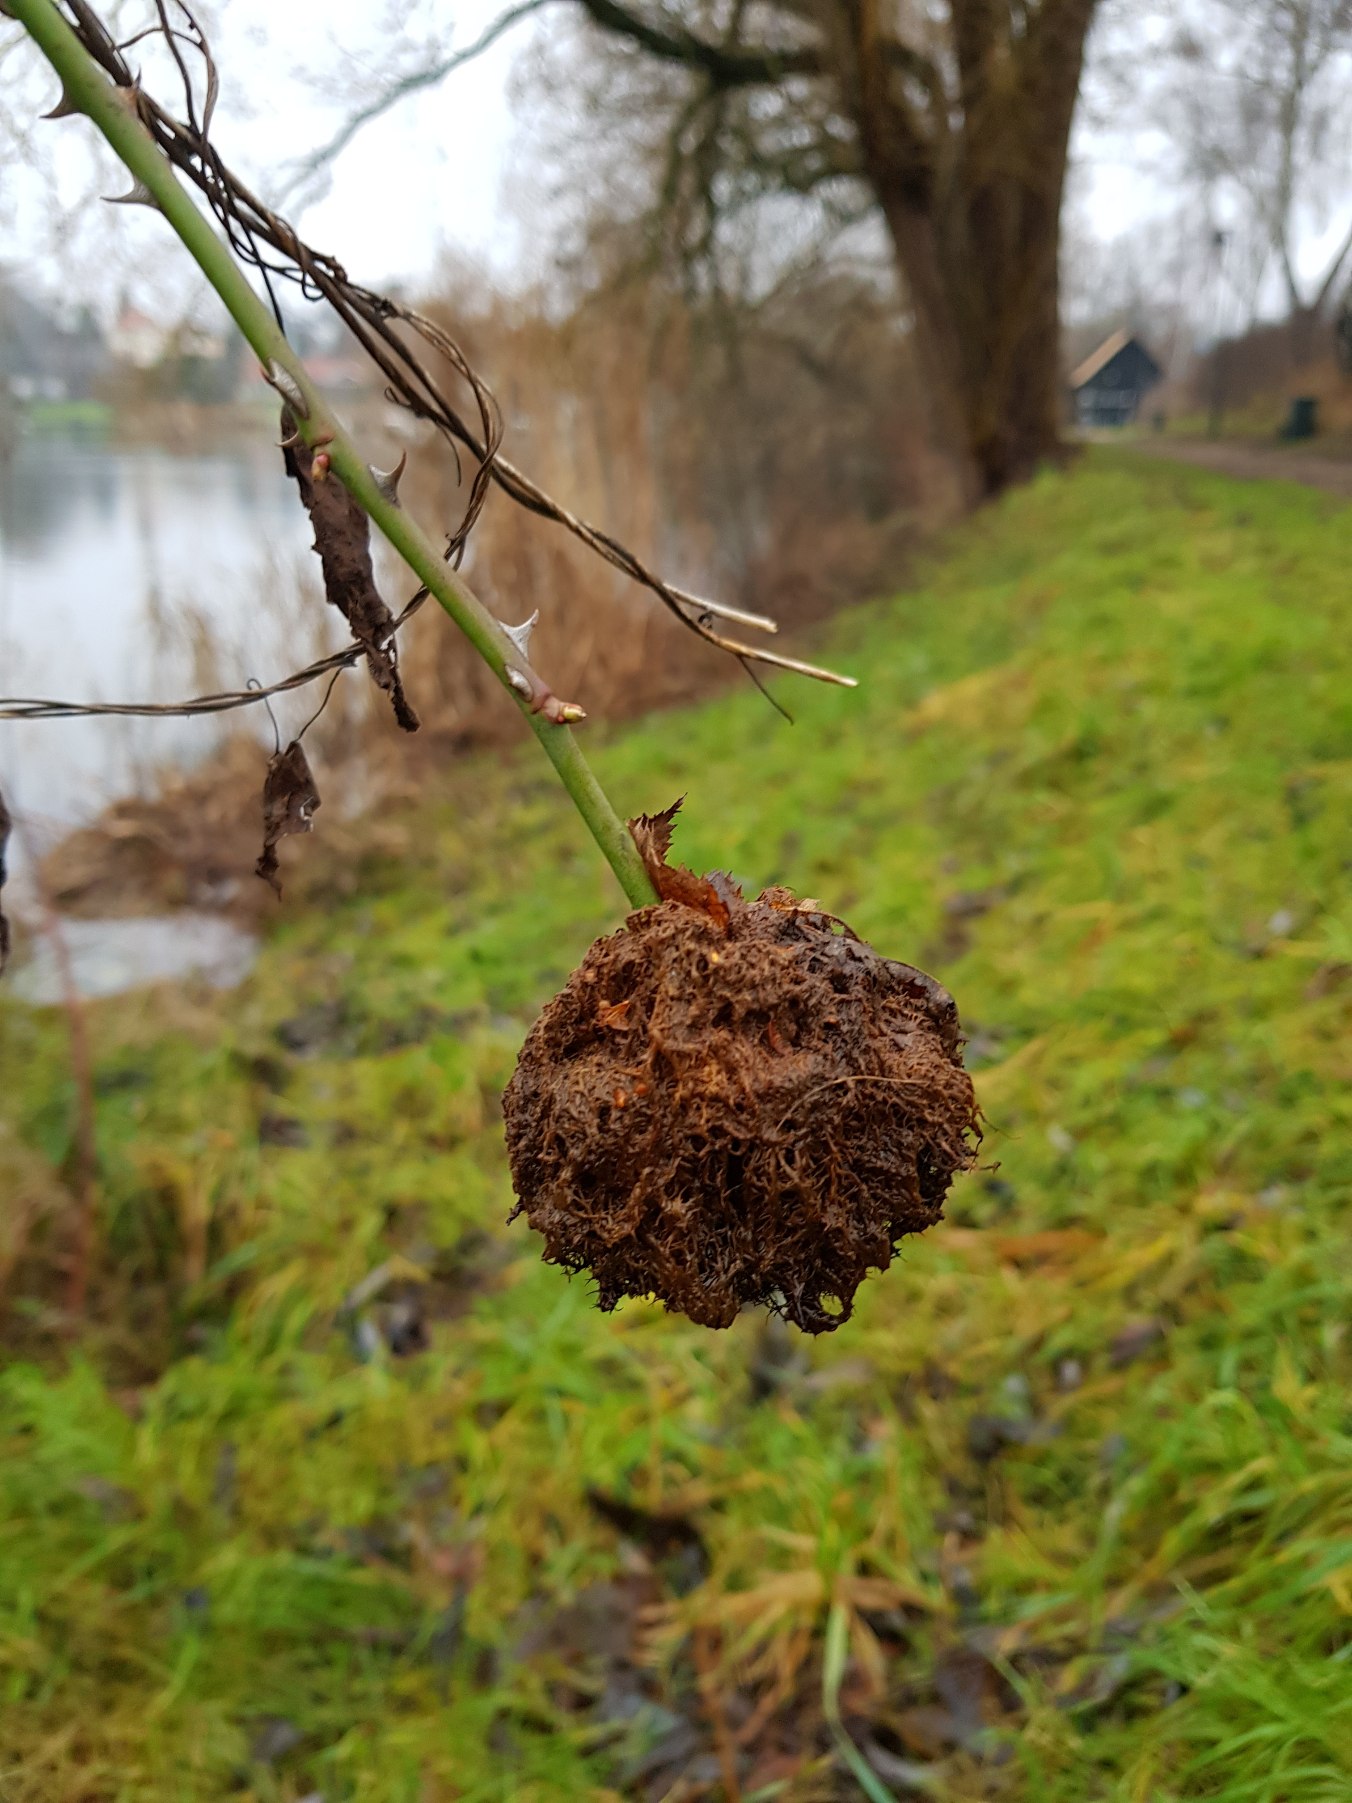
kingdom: Animalia
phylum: Arthropoda
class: Insecta
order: Hymenoptera
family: Cynipidae
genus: Diplolepis
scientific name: Diplolepis rosae
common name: Bedeguargalhveps
